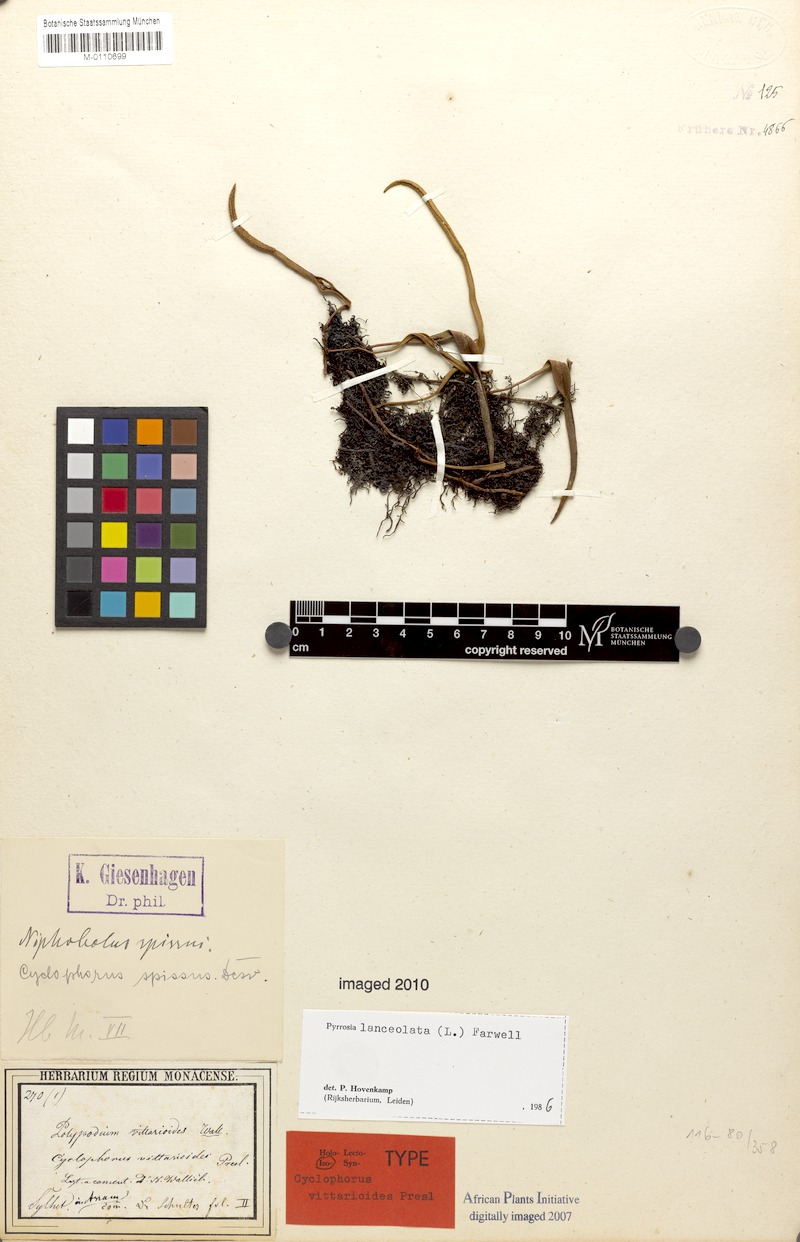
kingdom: Plantae
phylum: Tracheophyta
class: Polypodiopsida
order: Polypodiales
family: Polypodiaceae
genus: Pyrrosia
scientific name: Pyrrosia lanceolata
